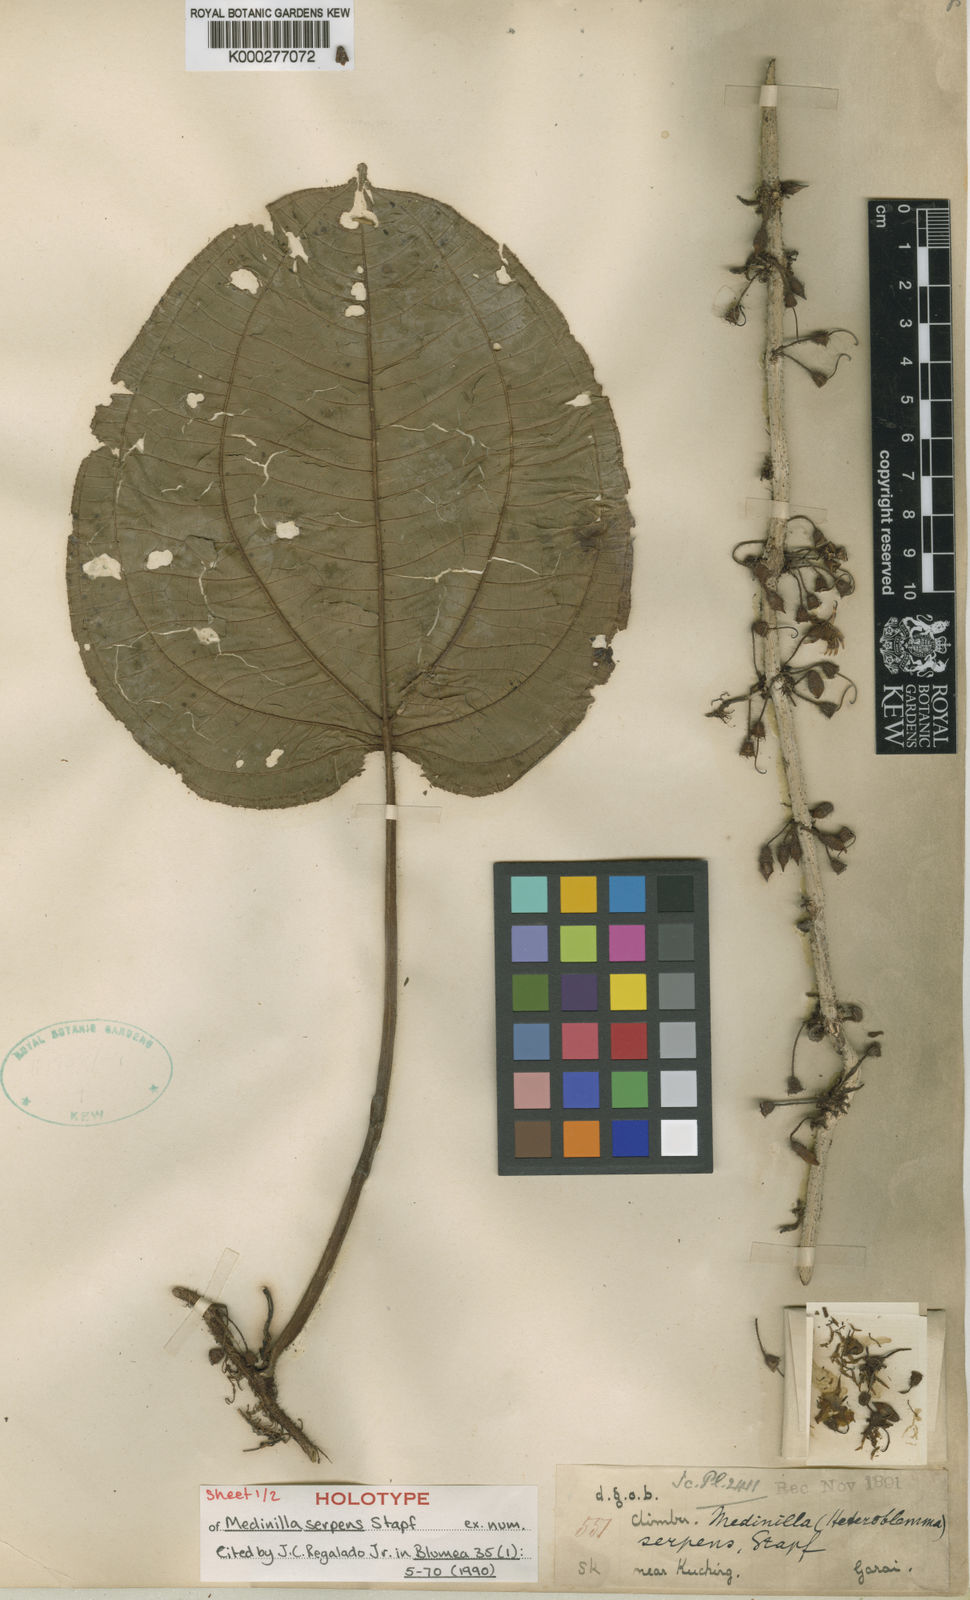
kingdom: Plantae
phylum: Tracheophyta
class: Magnoliopsida
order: Myrtales
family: Melastomataceae
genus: Heteroblemma
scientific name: Heteroblemma serpens
